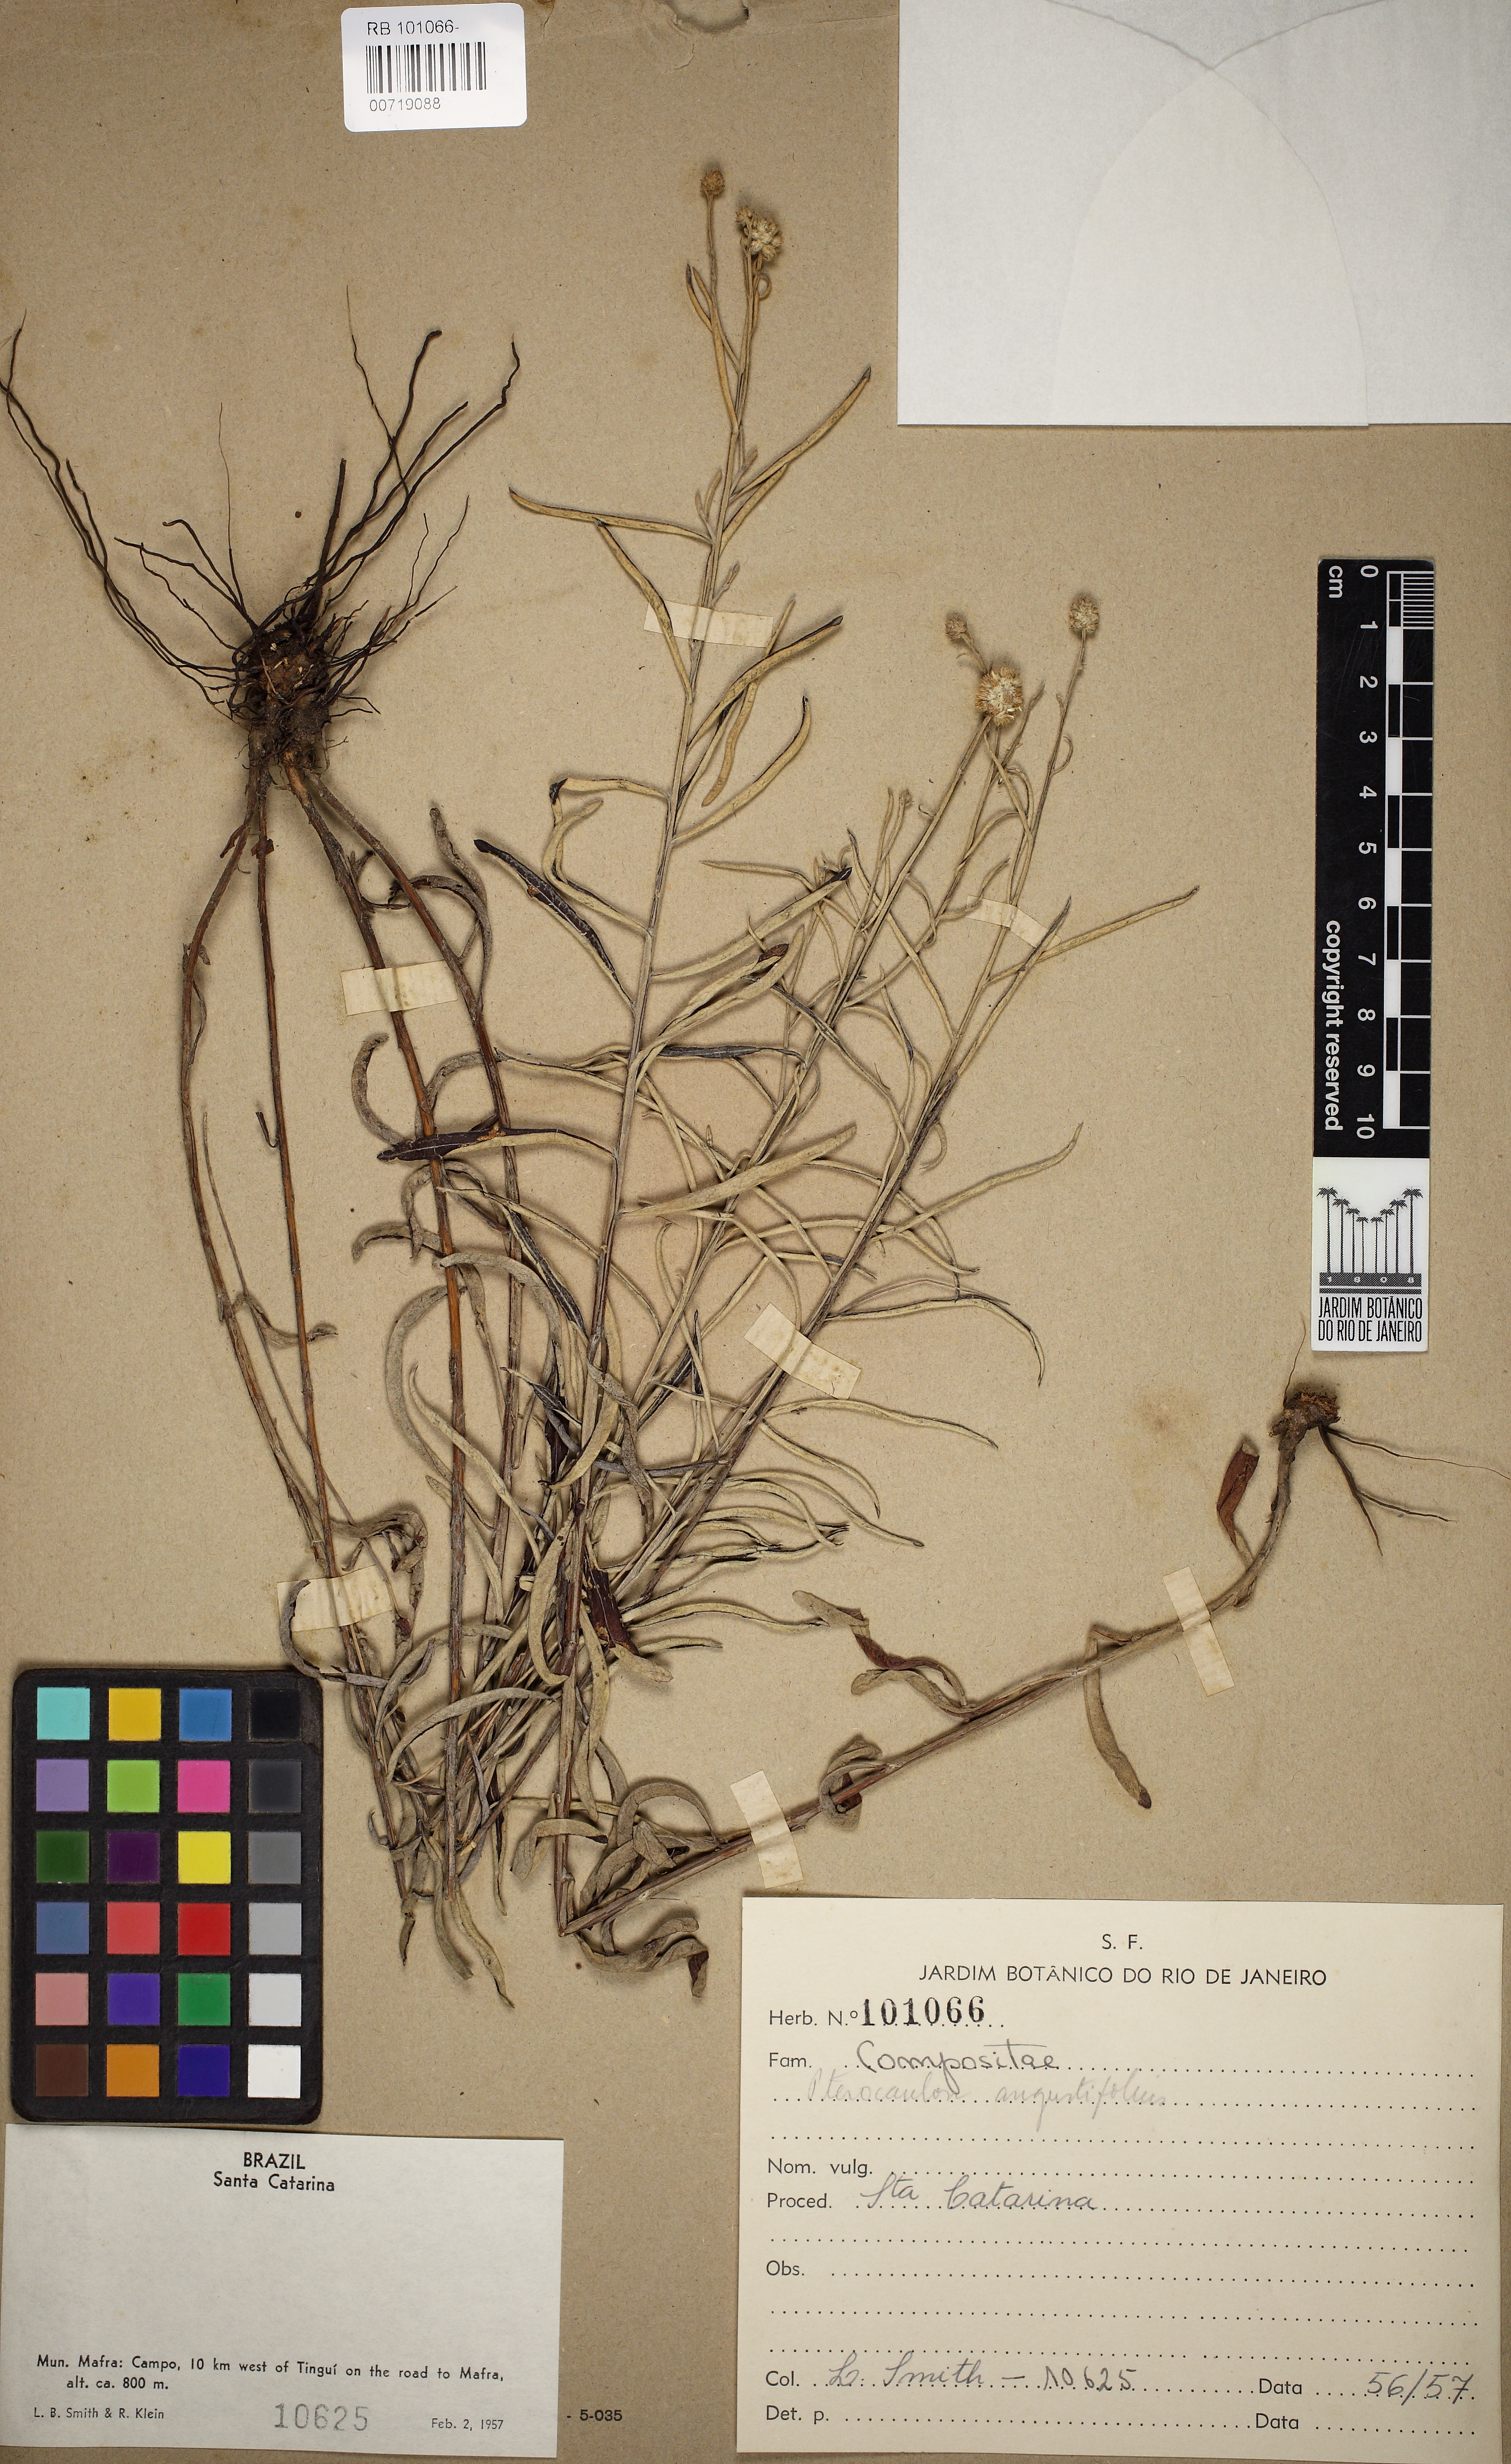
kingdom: Plantae
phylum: Tracheophyta
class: Magnoliopsida
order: Asterales
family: Asteraceae
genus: Pterocaulon
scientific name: Pterocaulon angustifolium
